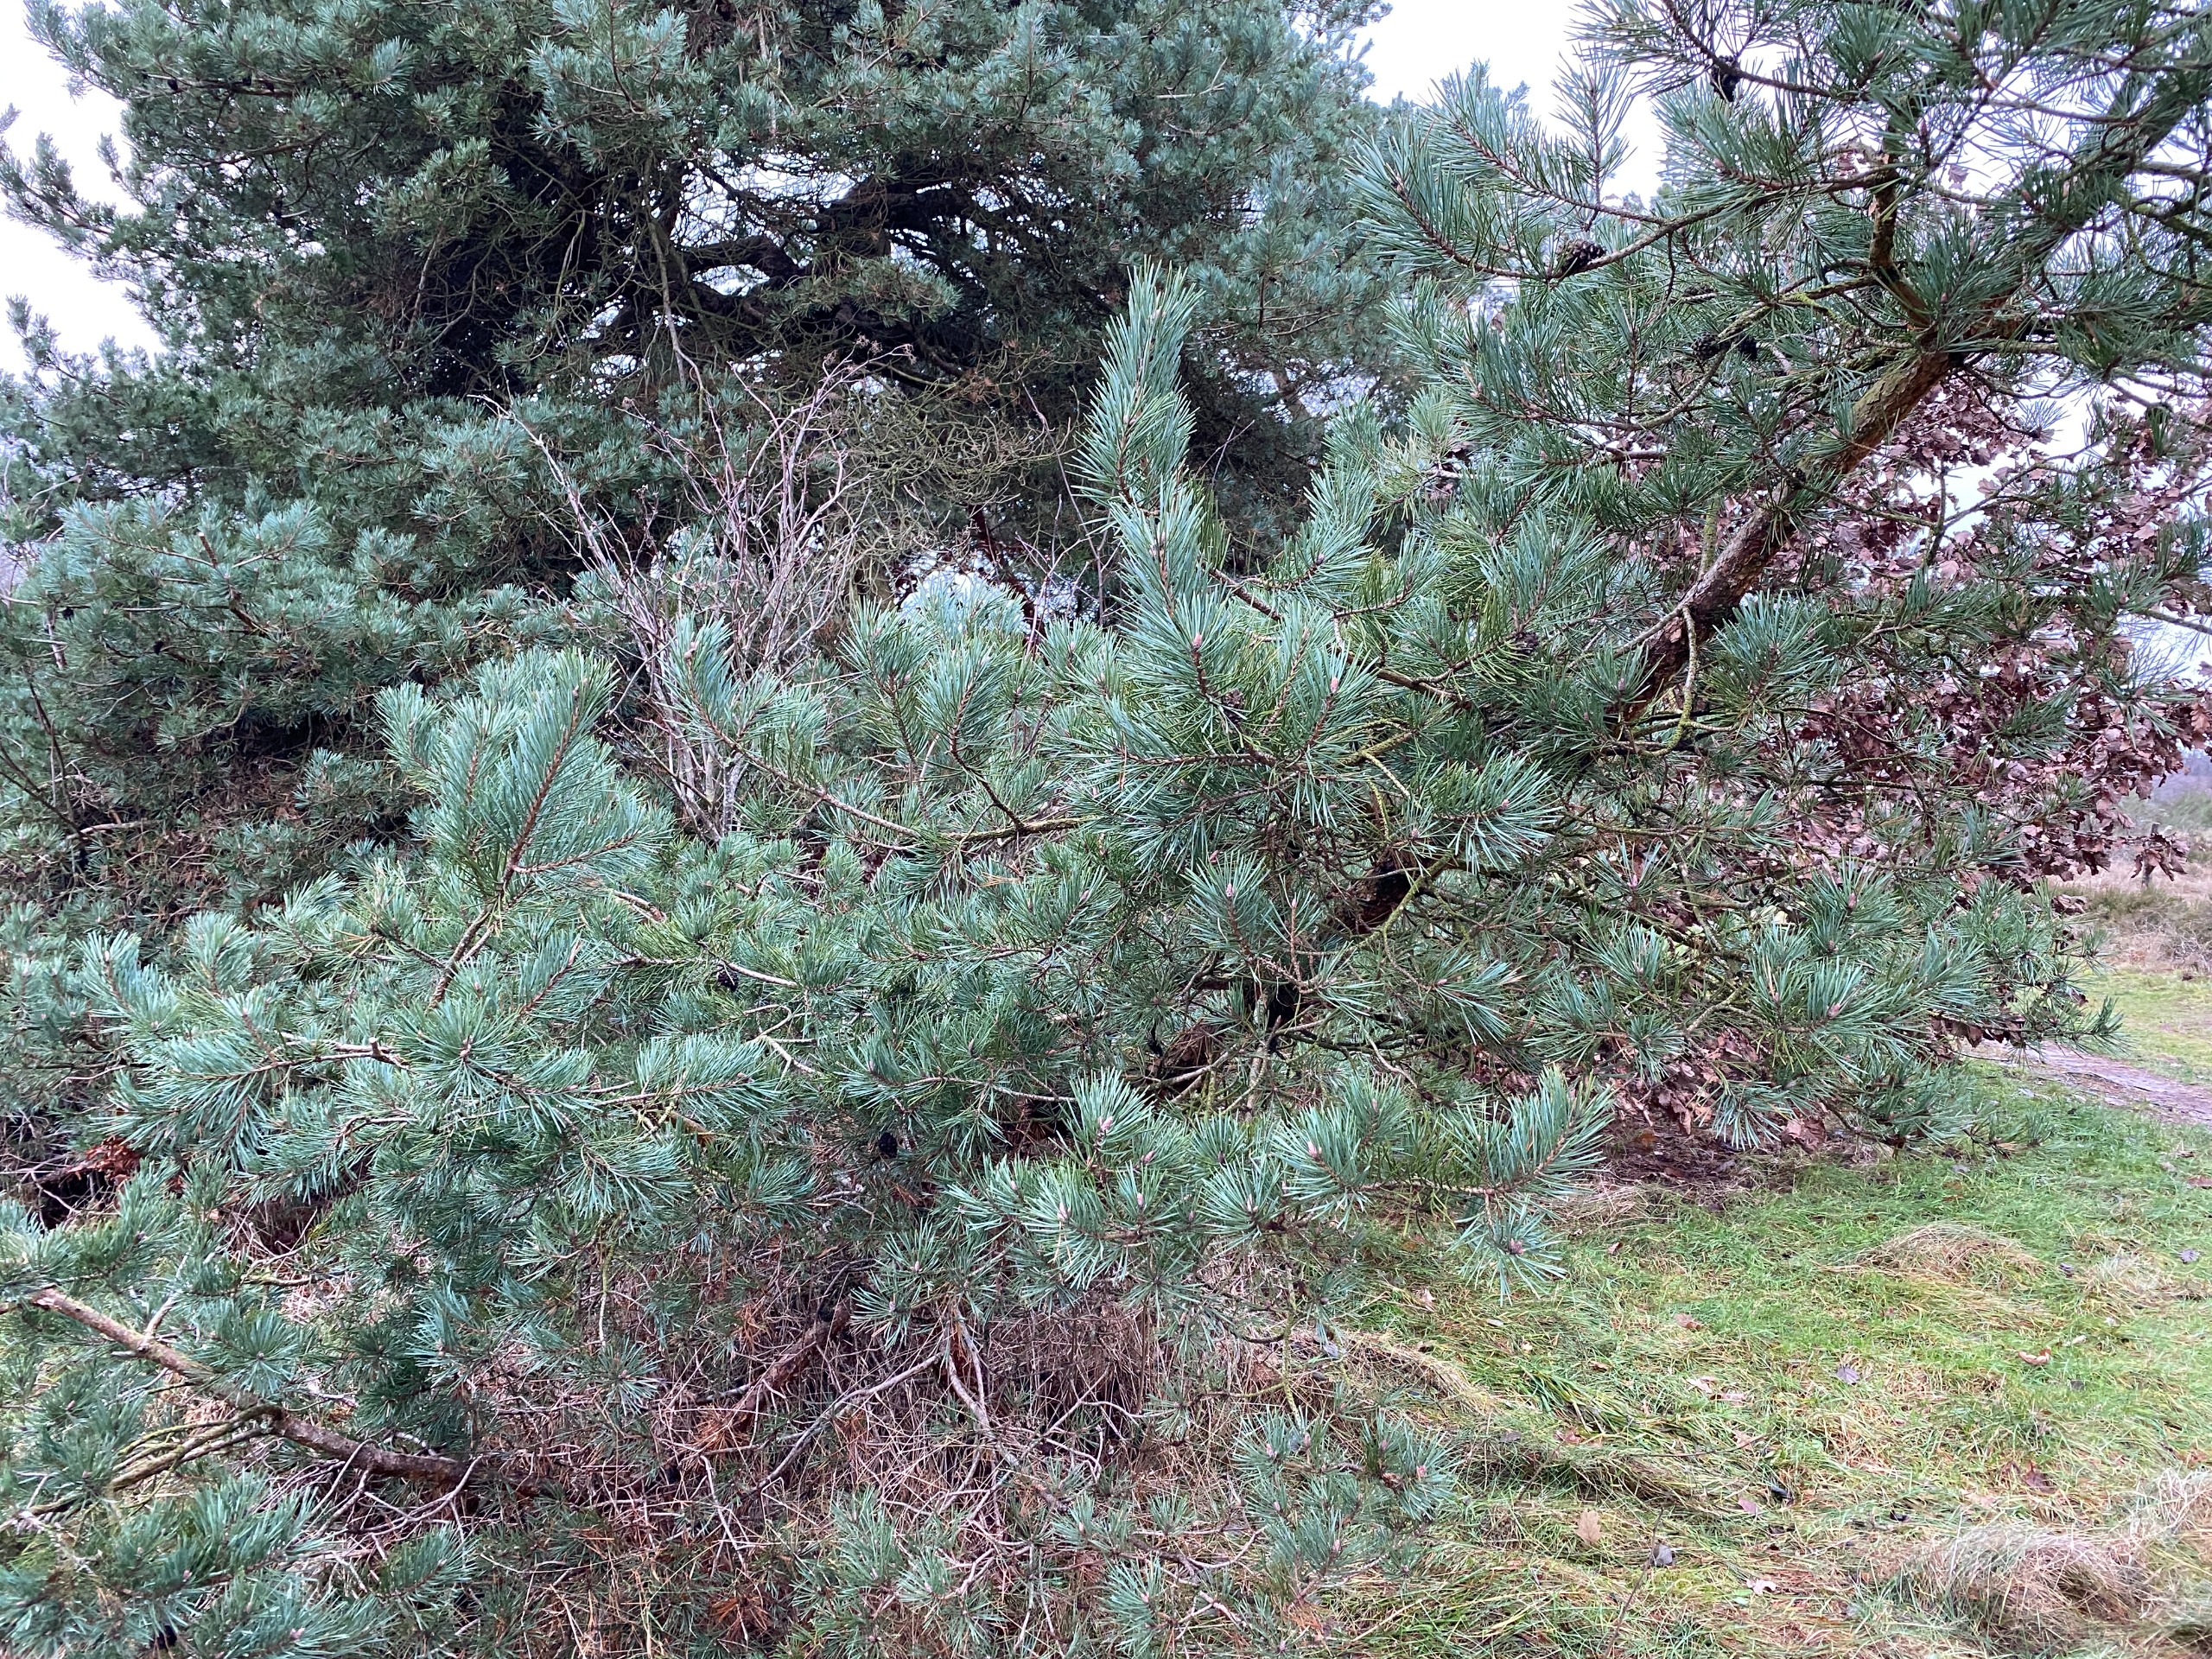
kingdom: Plantae
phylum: Tracheophyta
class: Pinopsida
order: Pinales
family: Pinaceae
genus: Pinus
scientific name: Pinus sylvestris
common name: Skov-fyr
